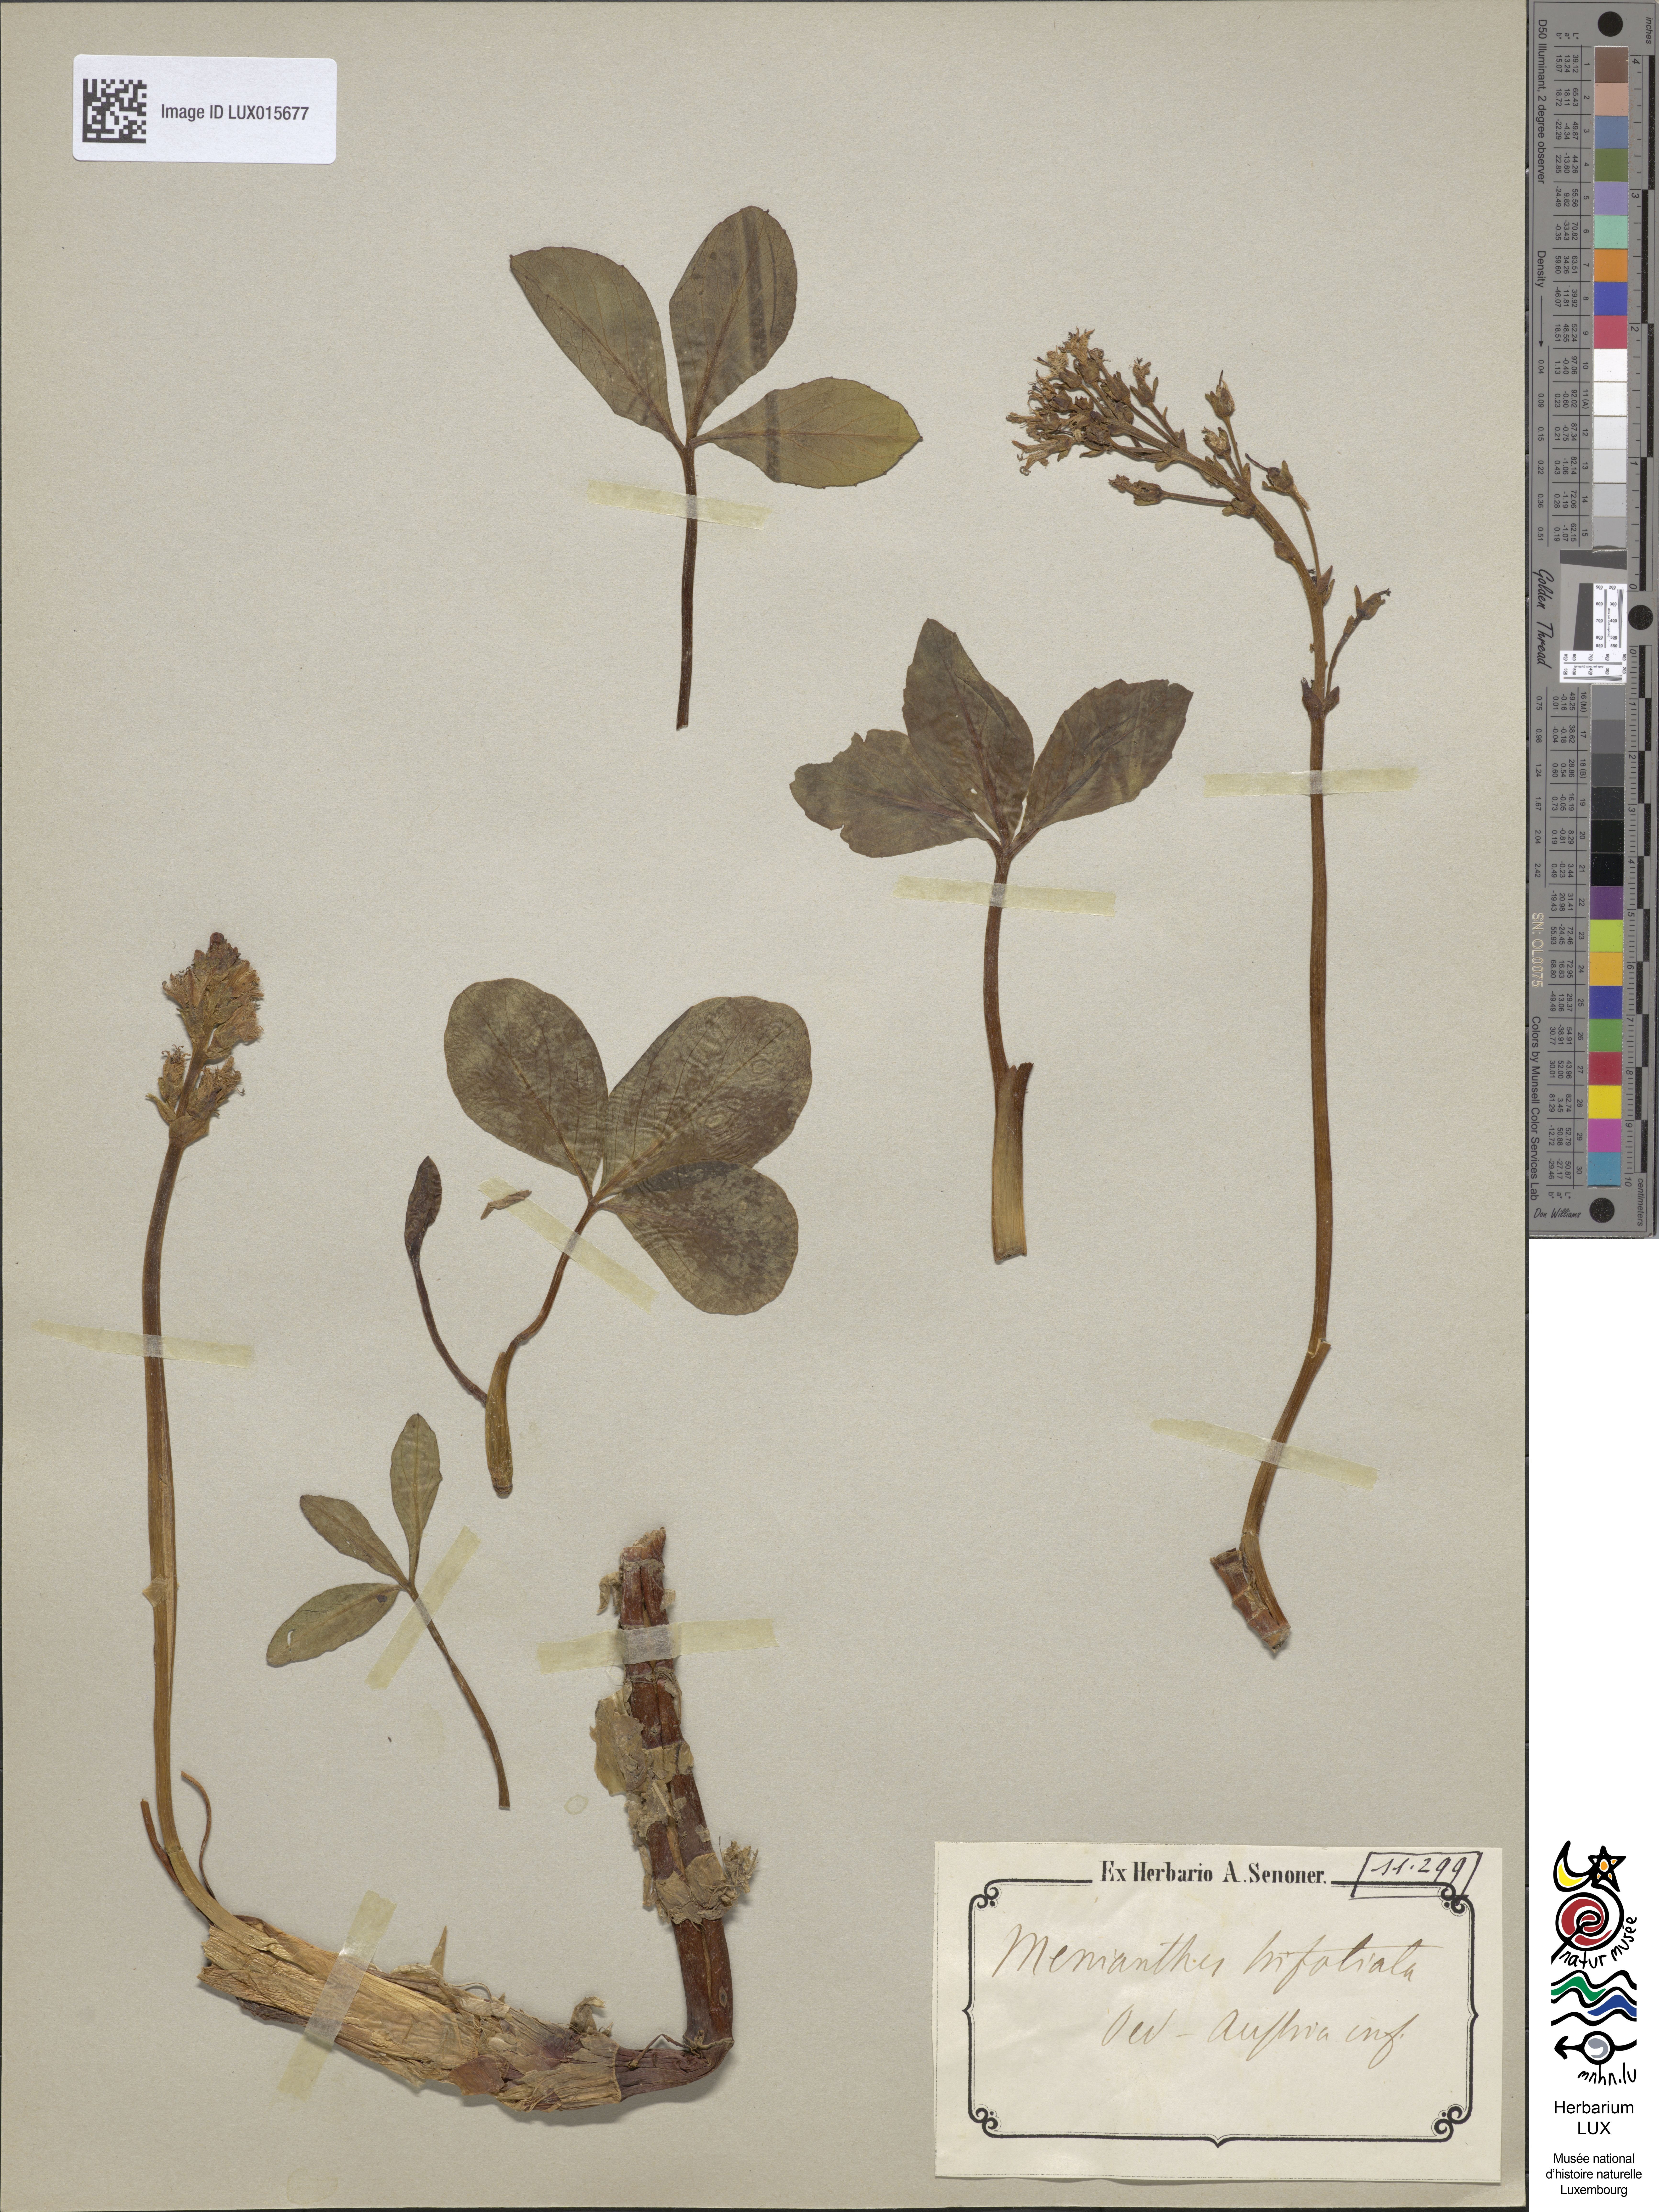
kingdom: Plantae
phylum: Tracheophyta
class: Magnoliopsida
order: Asterales
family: Menyanthaceae
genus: Menyanthes
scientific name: Menyanthes trifoliata
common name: Bogbean
